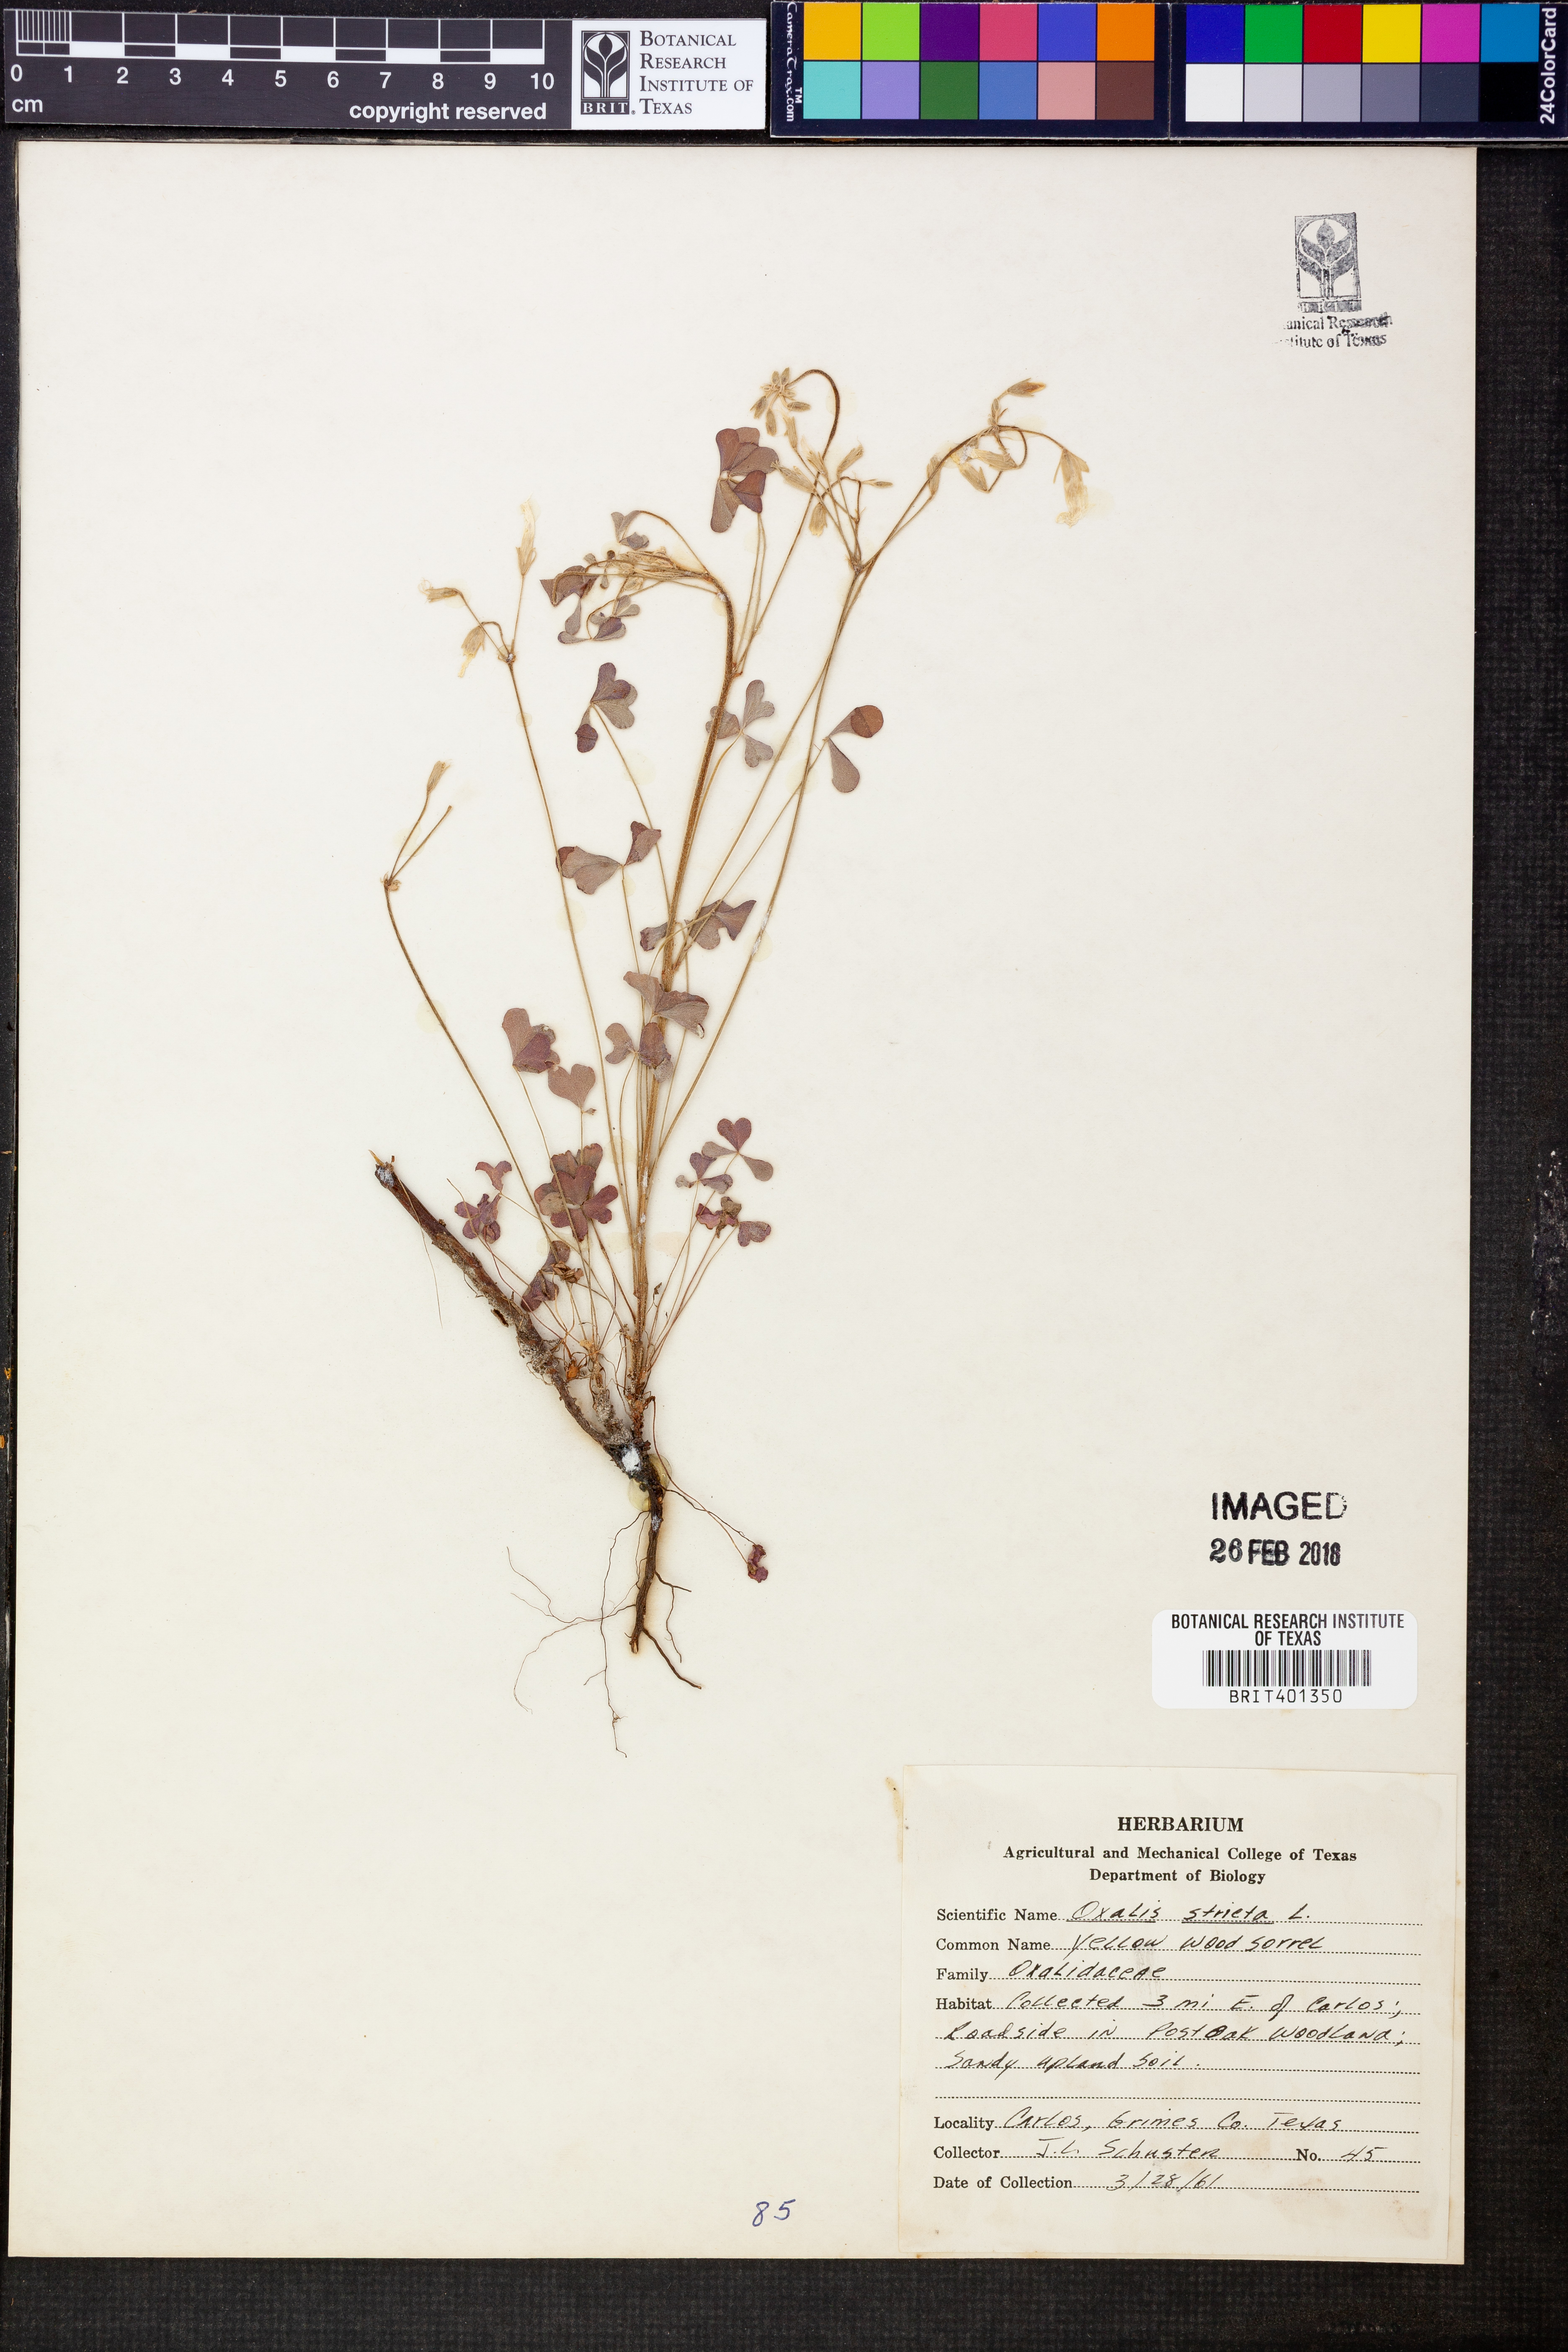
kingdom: Plantae
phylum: Tracheophyta
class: Magnoliopsida
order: Oxalidales
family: Oxalidaceae
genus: Oxalis
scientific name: Oxalis stricta
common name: Upright yellow-sorrel
